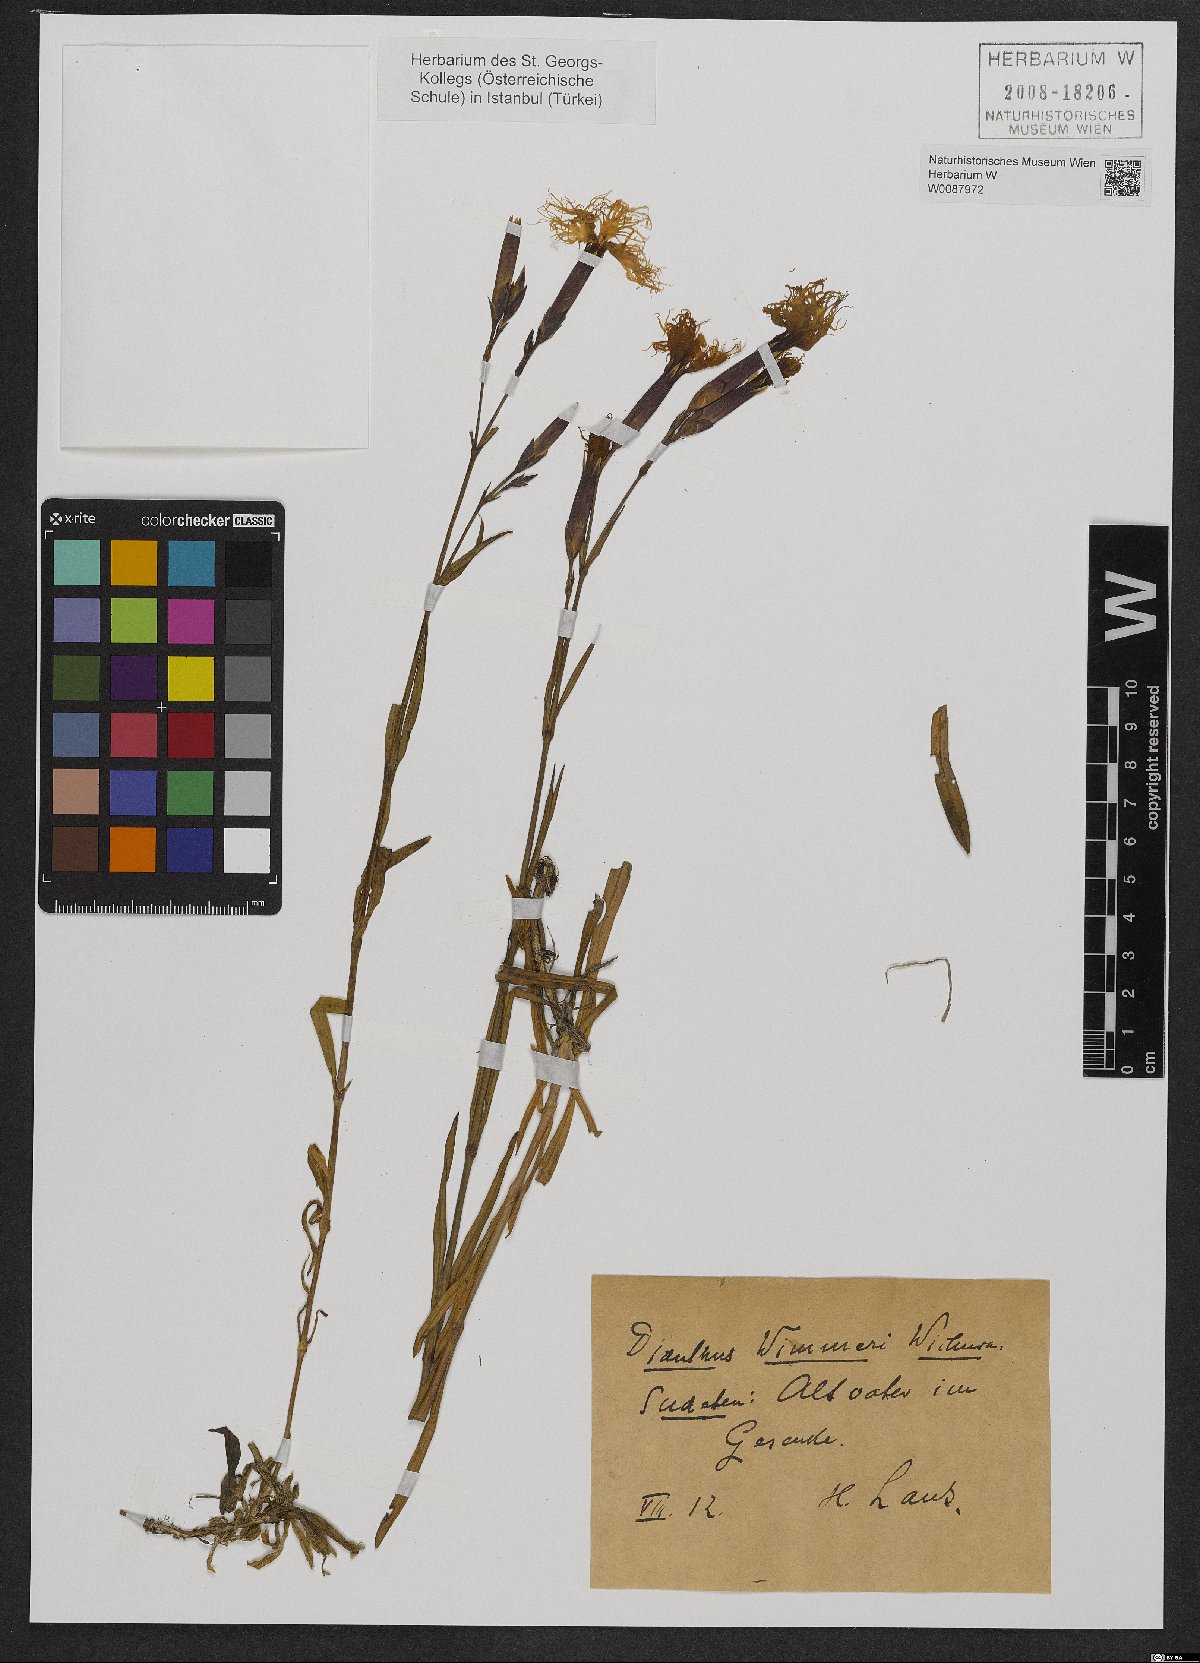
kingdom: Plantae
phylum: Tracheophyta
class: Magnoliopsida
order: Caryophyllales
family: Caryophyllaceae
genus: Dianthus
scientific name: Dianthus superbus
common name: Fringed pink
